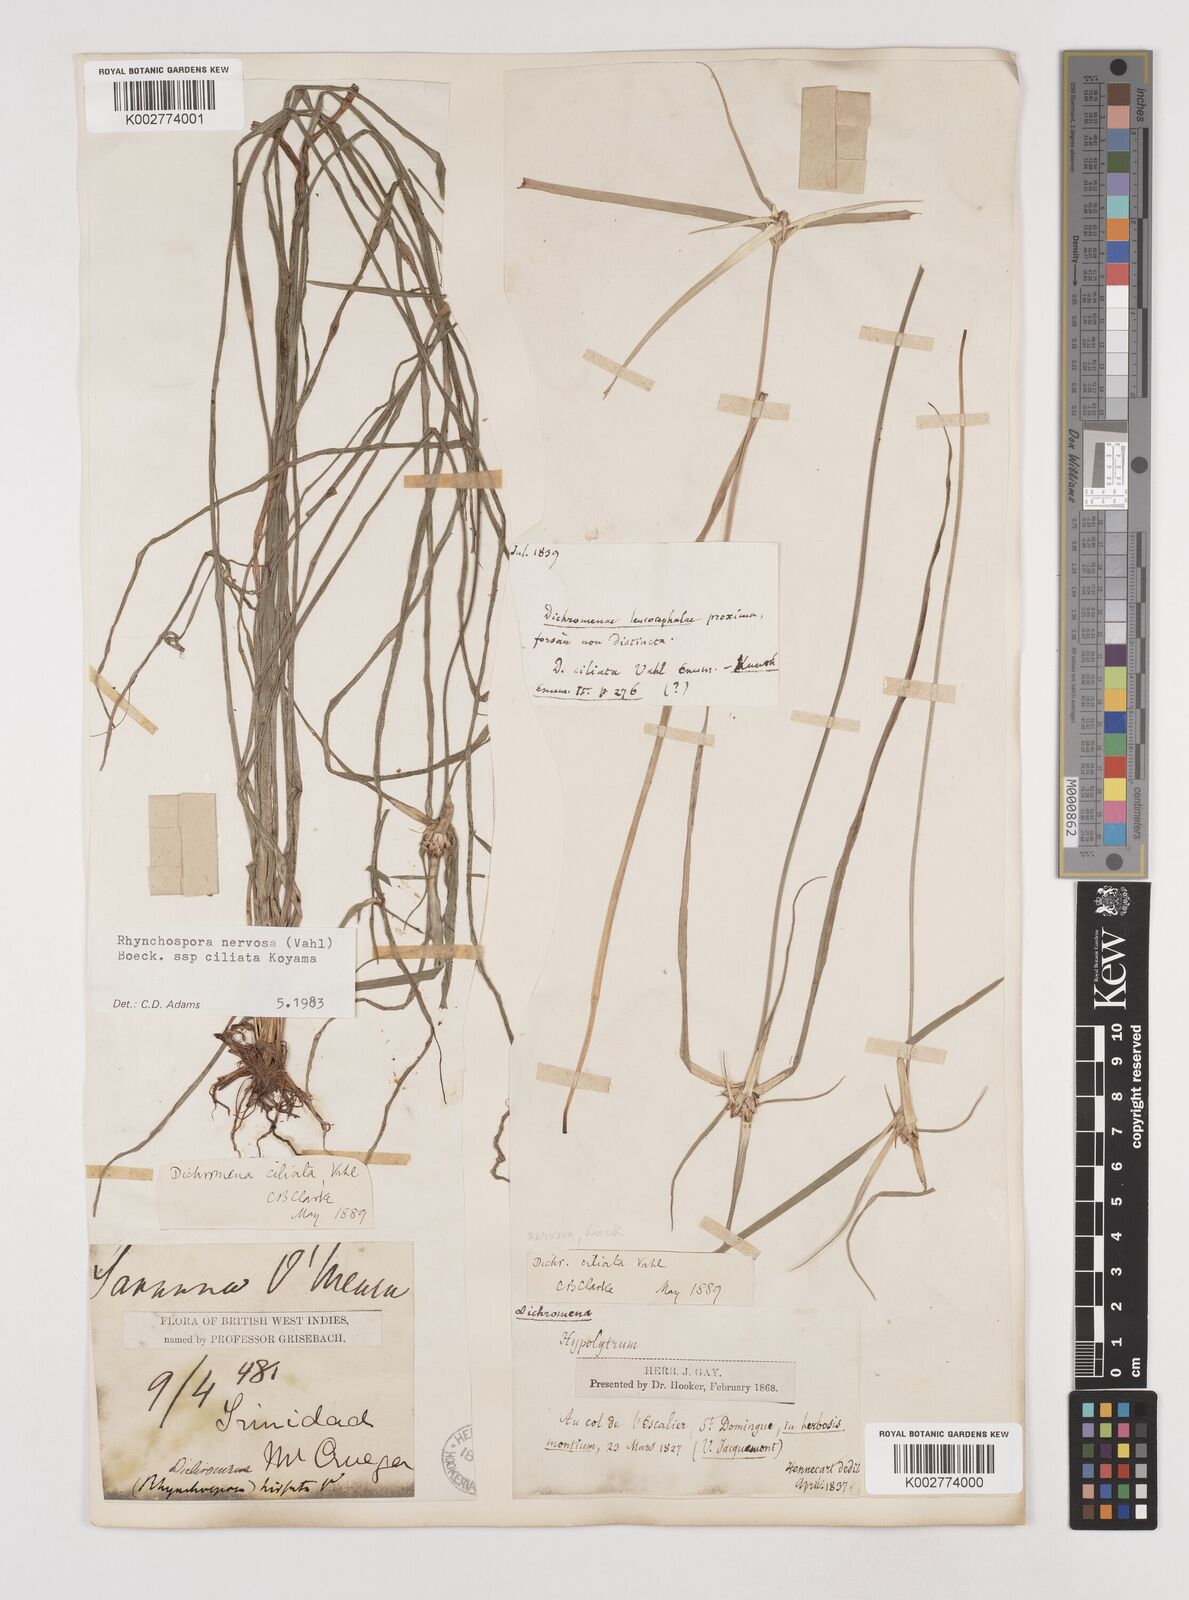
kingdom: Plantae
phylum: Tracheophyta
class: Liliopsida
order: Poales
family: Cyperaceae
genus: Rhynchospora
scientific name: Rhynchospora pura
